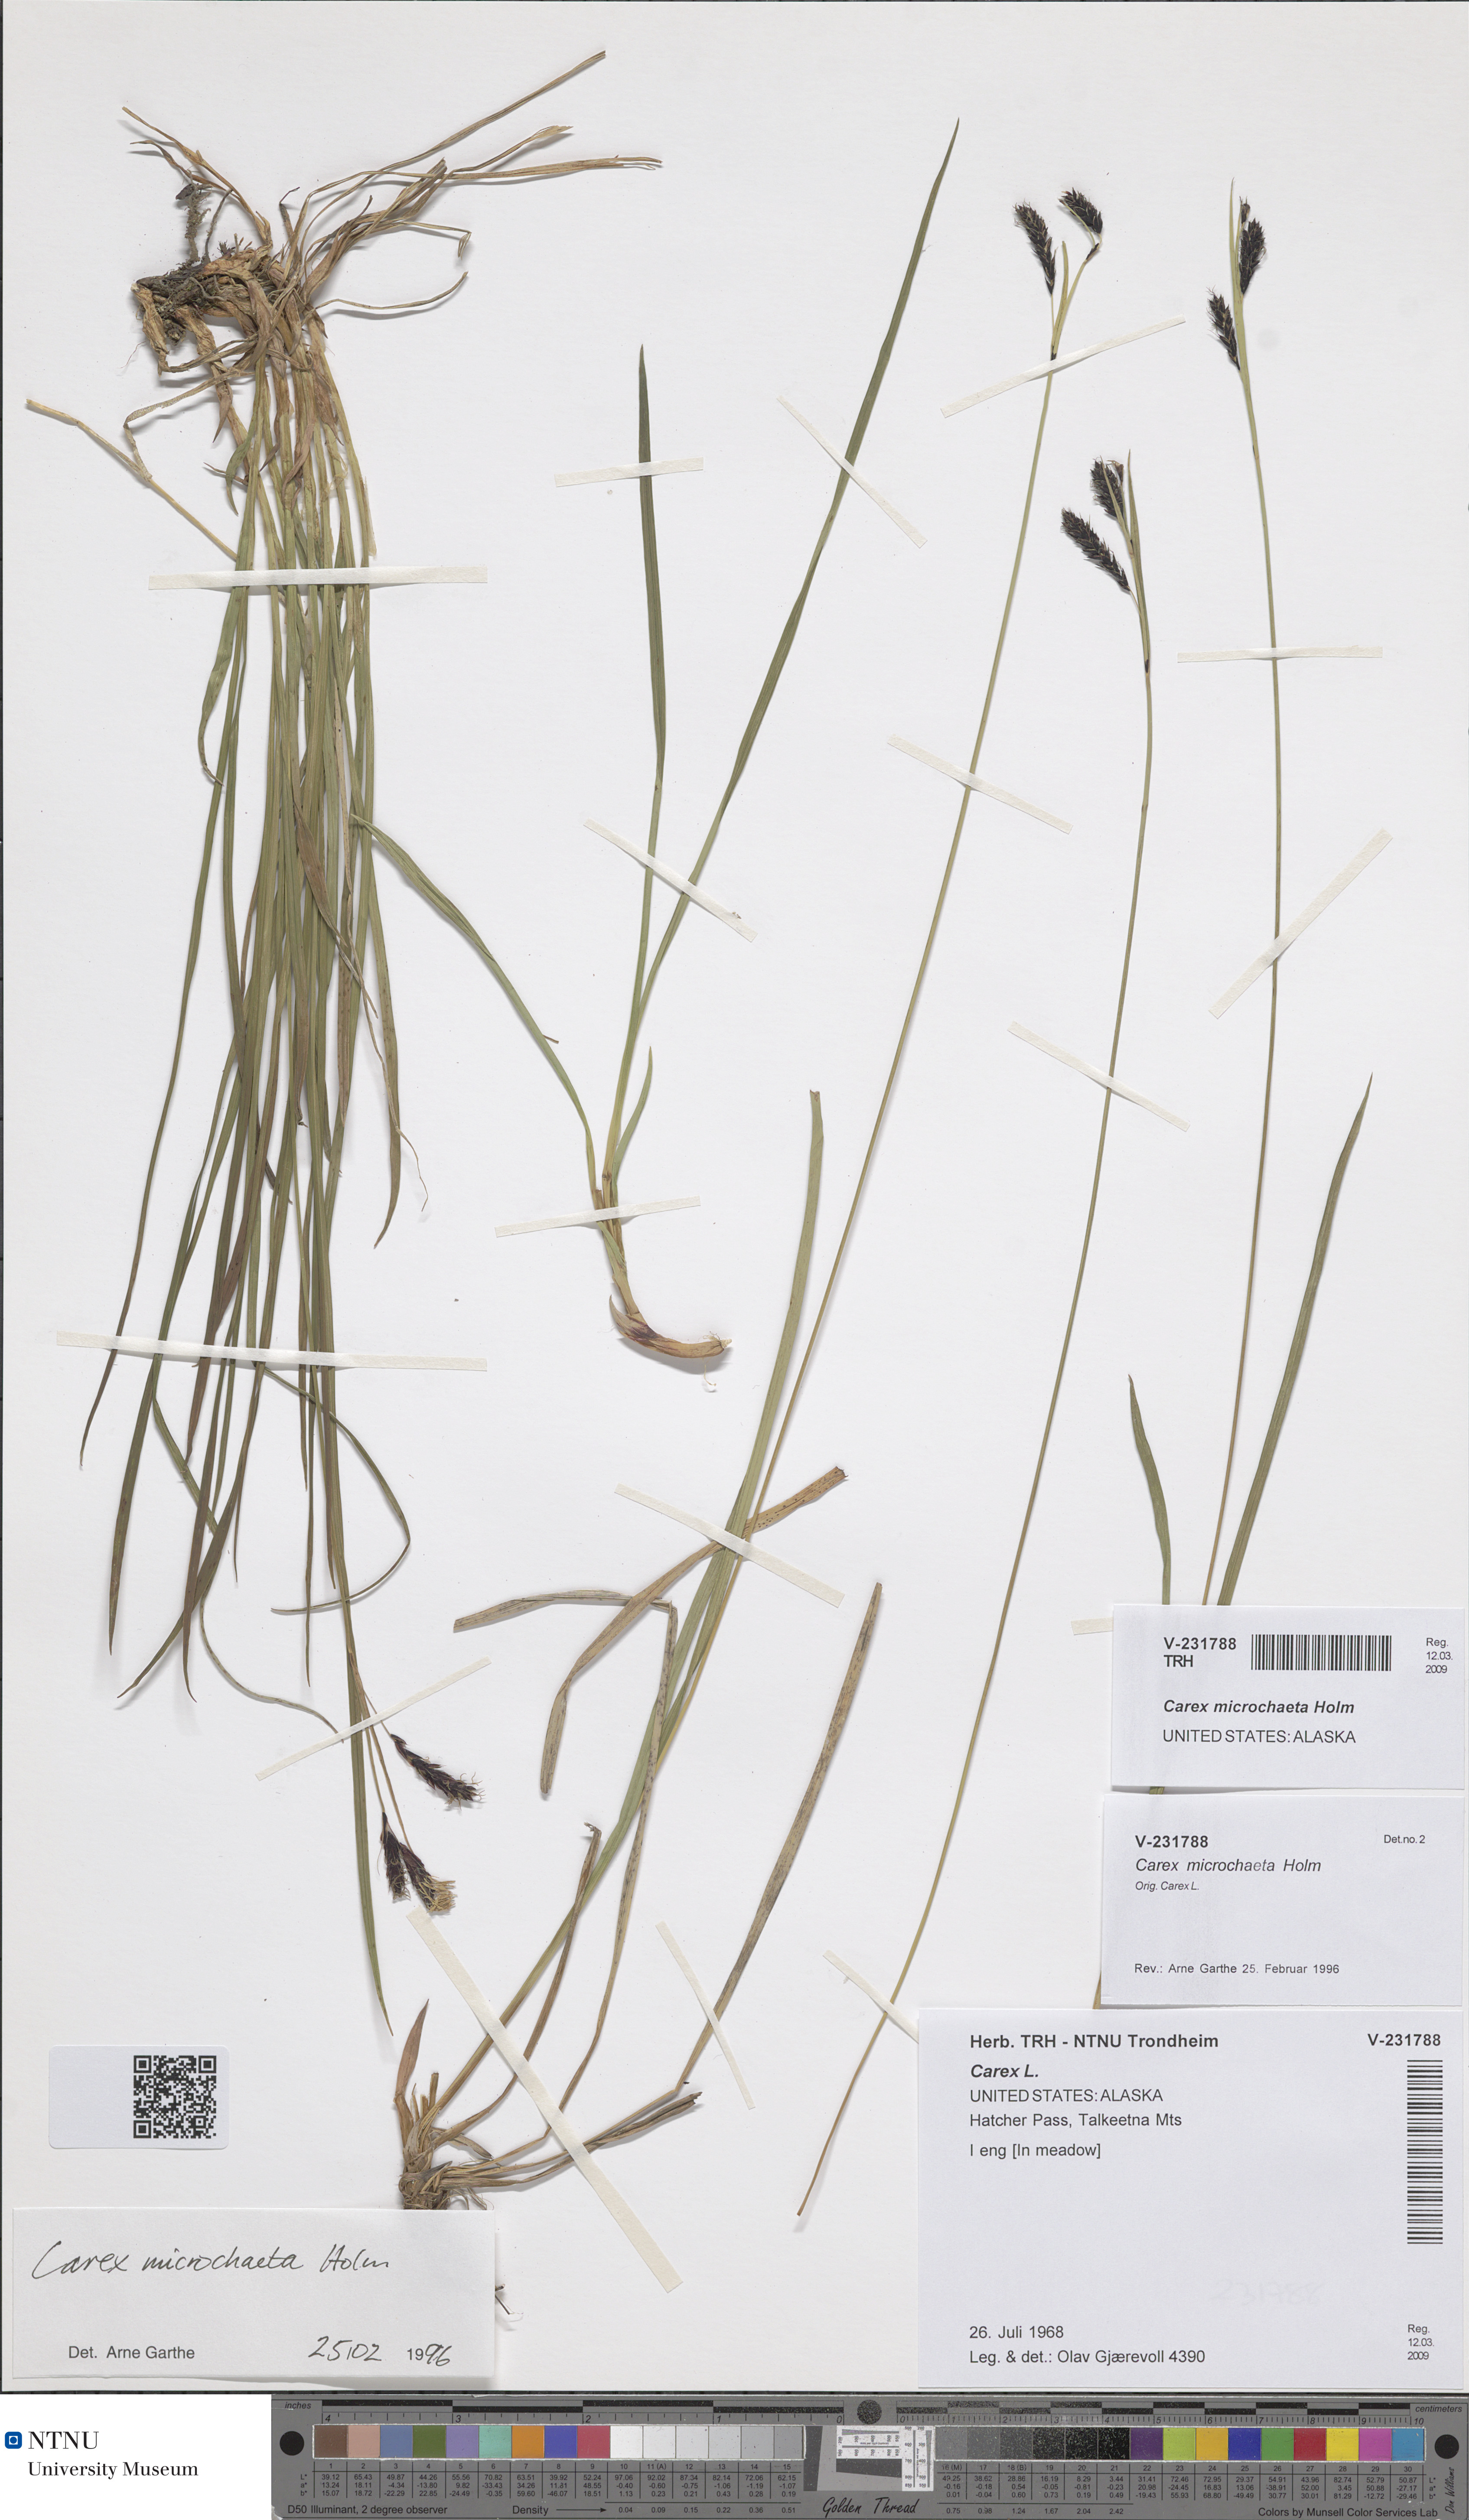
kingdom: Plantae
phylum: Tracheophyta
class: Liliopsida
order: Poales
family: Cyperaceae
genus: Carex
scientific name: Carex microchaeta
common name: Bering sea sedge
